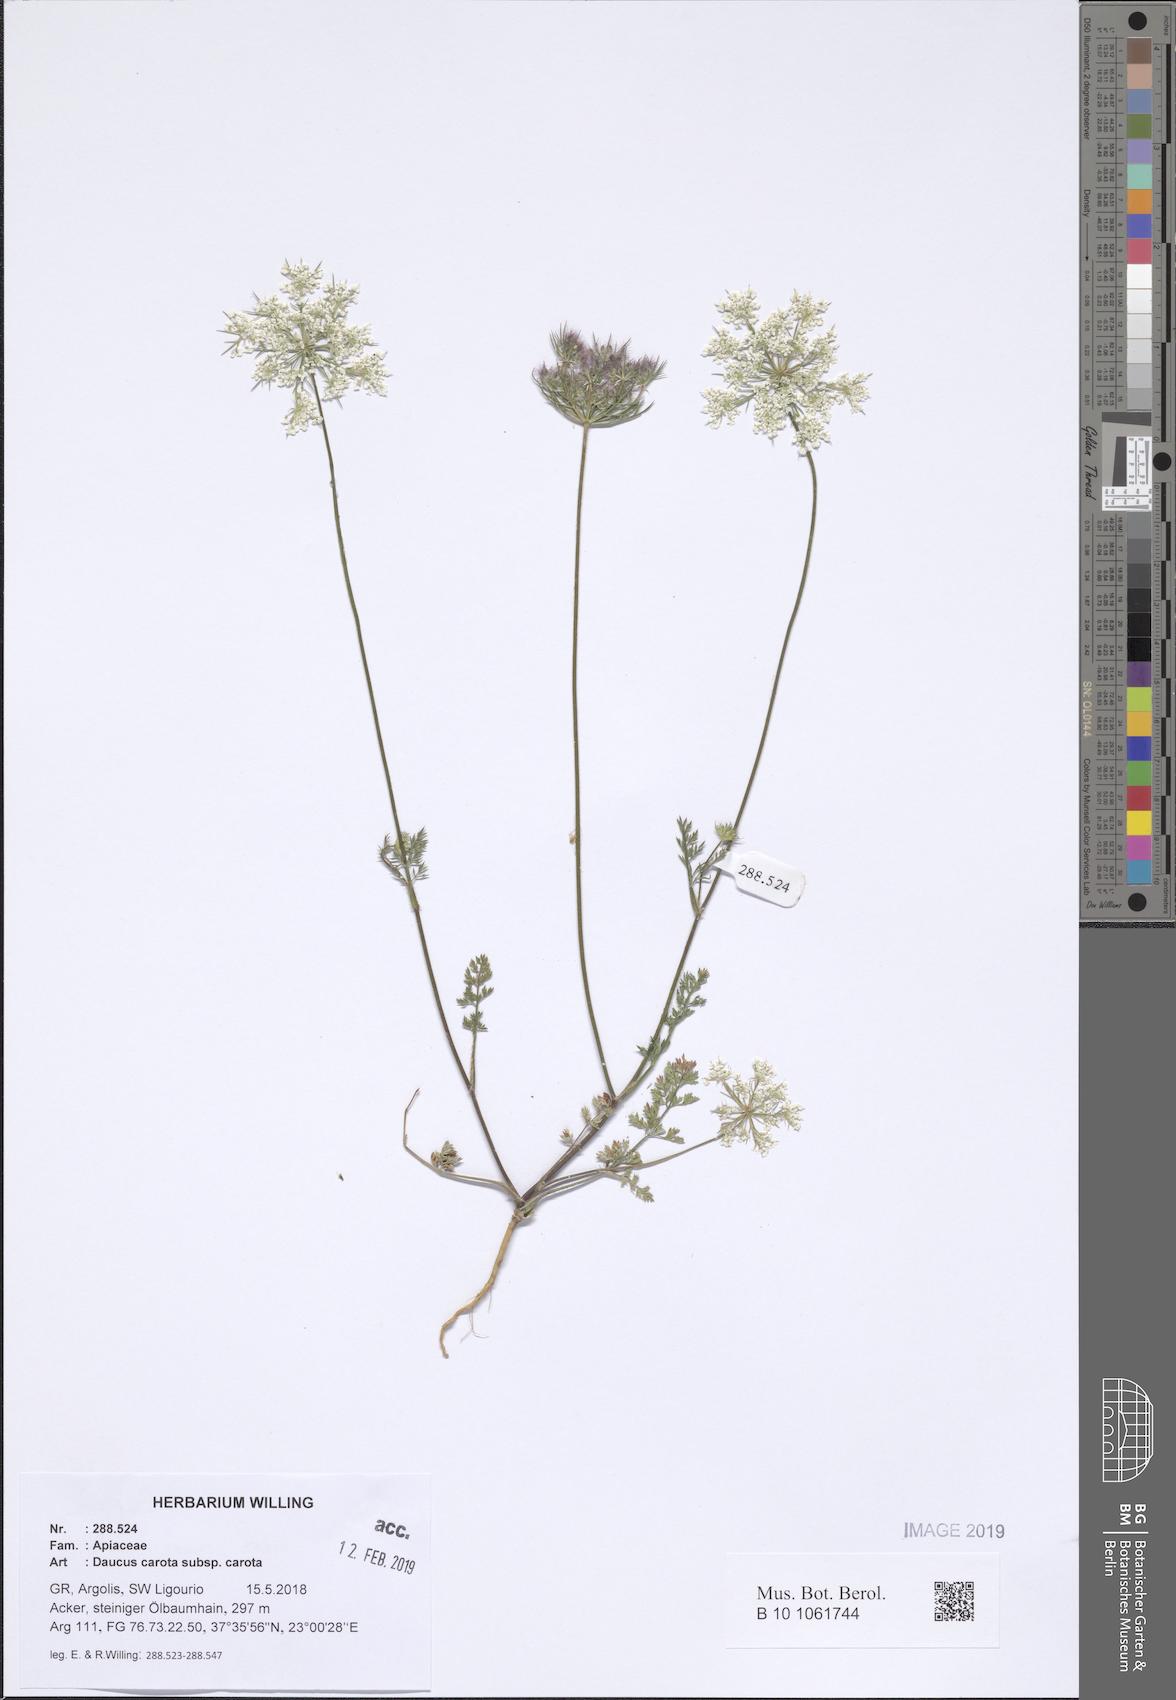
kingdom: Plantae
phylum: Tracheophyta
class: Magnoliopsida
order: Apiales
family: Apiaceae
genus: Daucus
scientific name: Daucus carota
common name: Wild carrot
